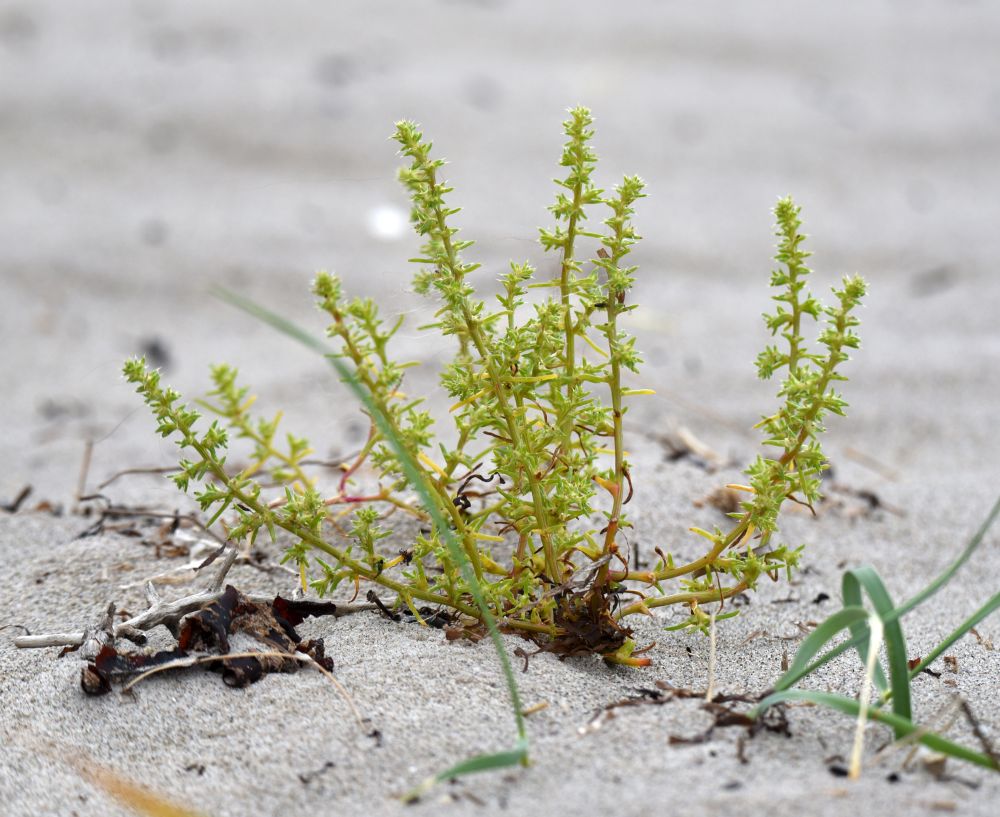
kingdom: Plantae
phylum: Tracheophyta
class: Magnoliopsida
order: Caryophyllales
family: Amaranthaceae
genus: Salsola
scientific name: Salsola kali
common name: Saltwort
